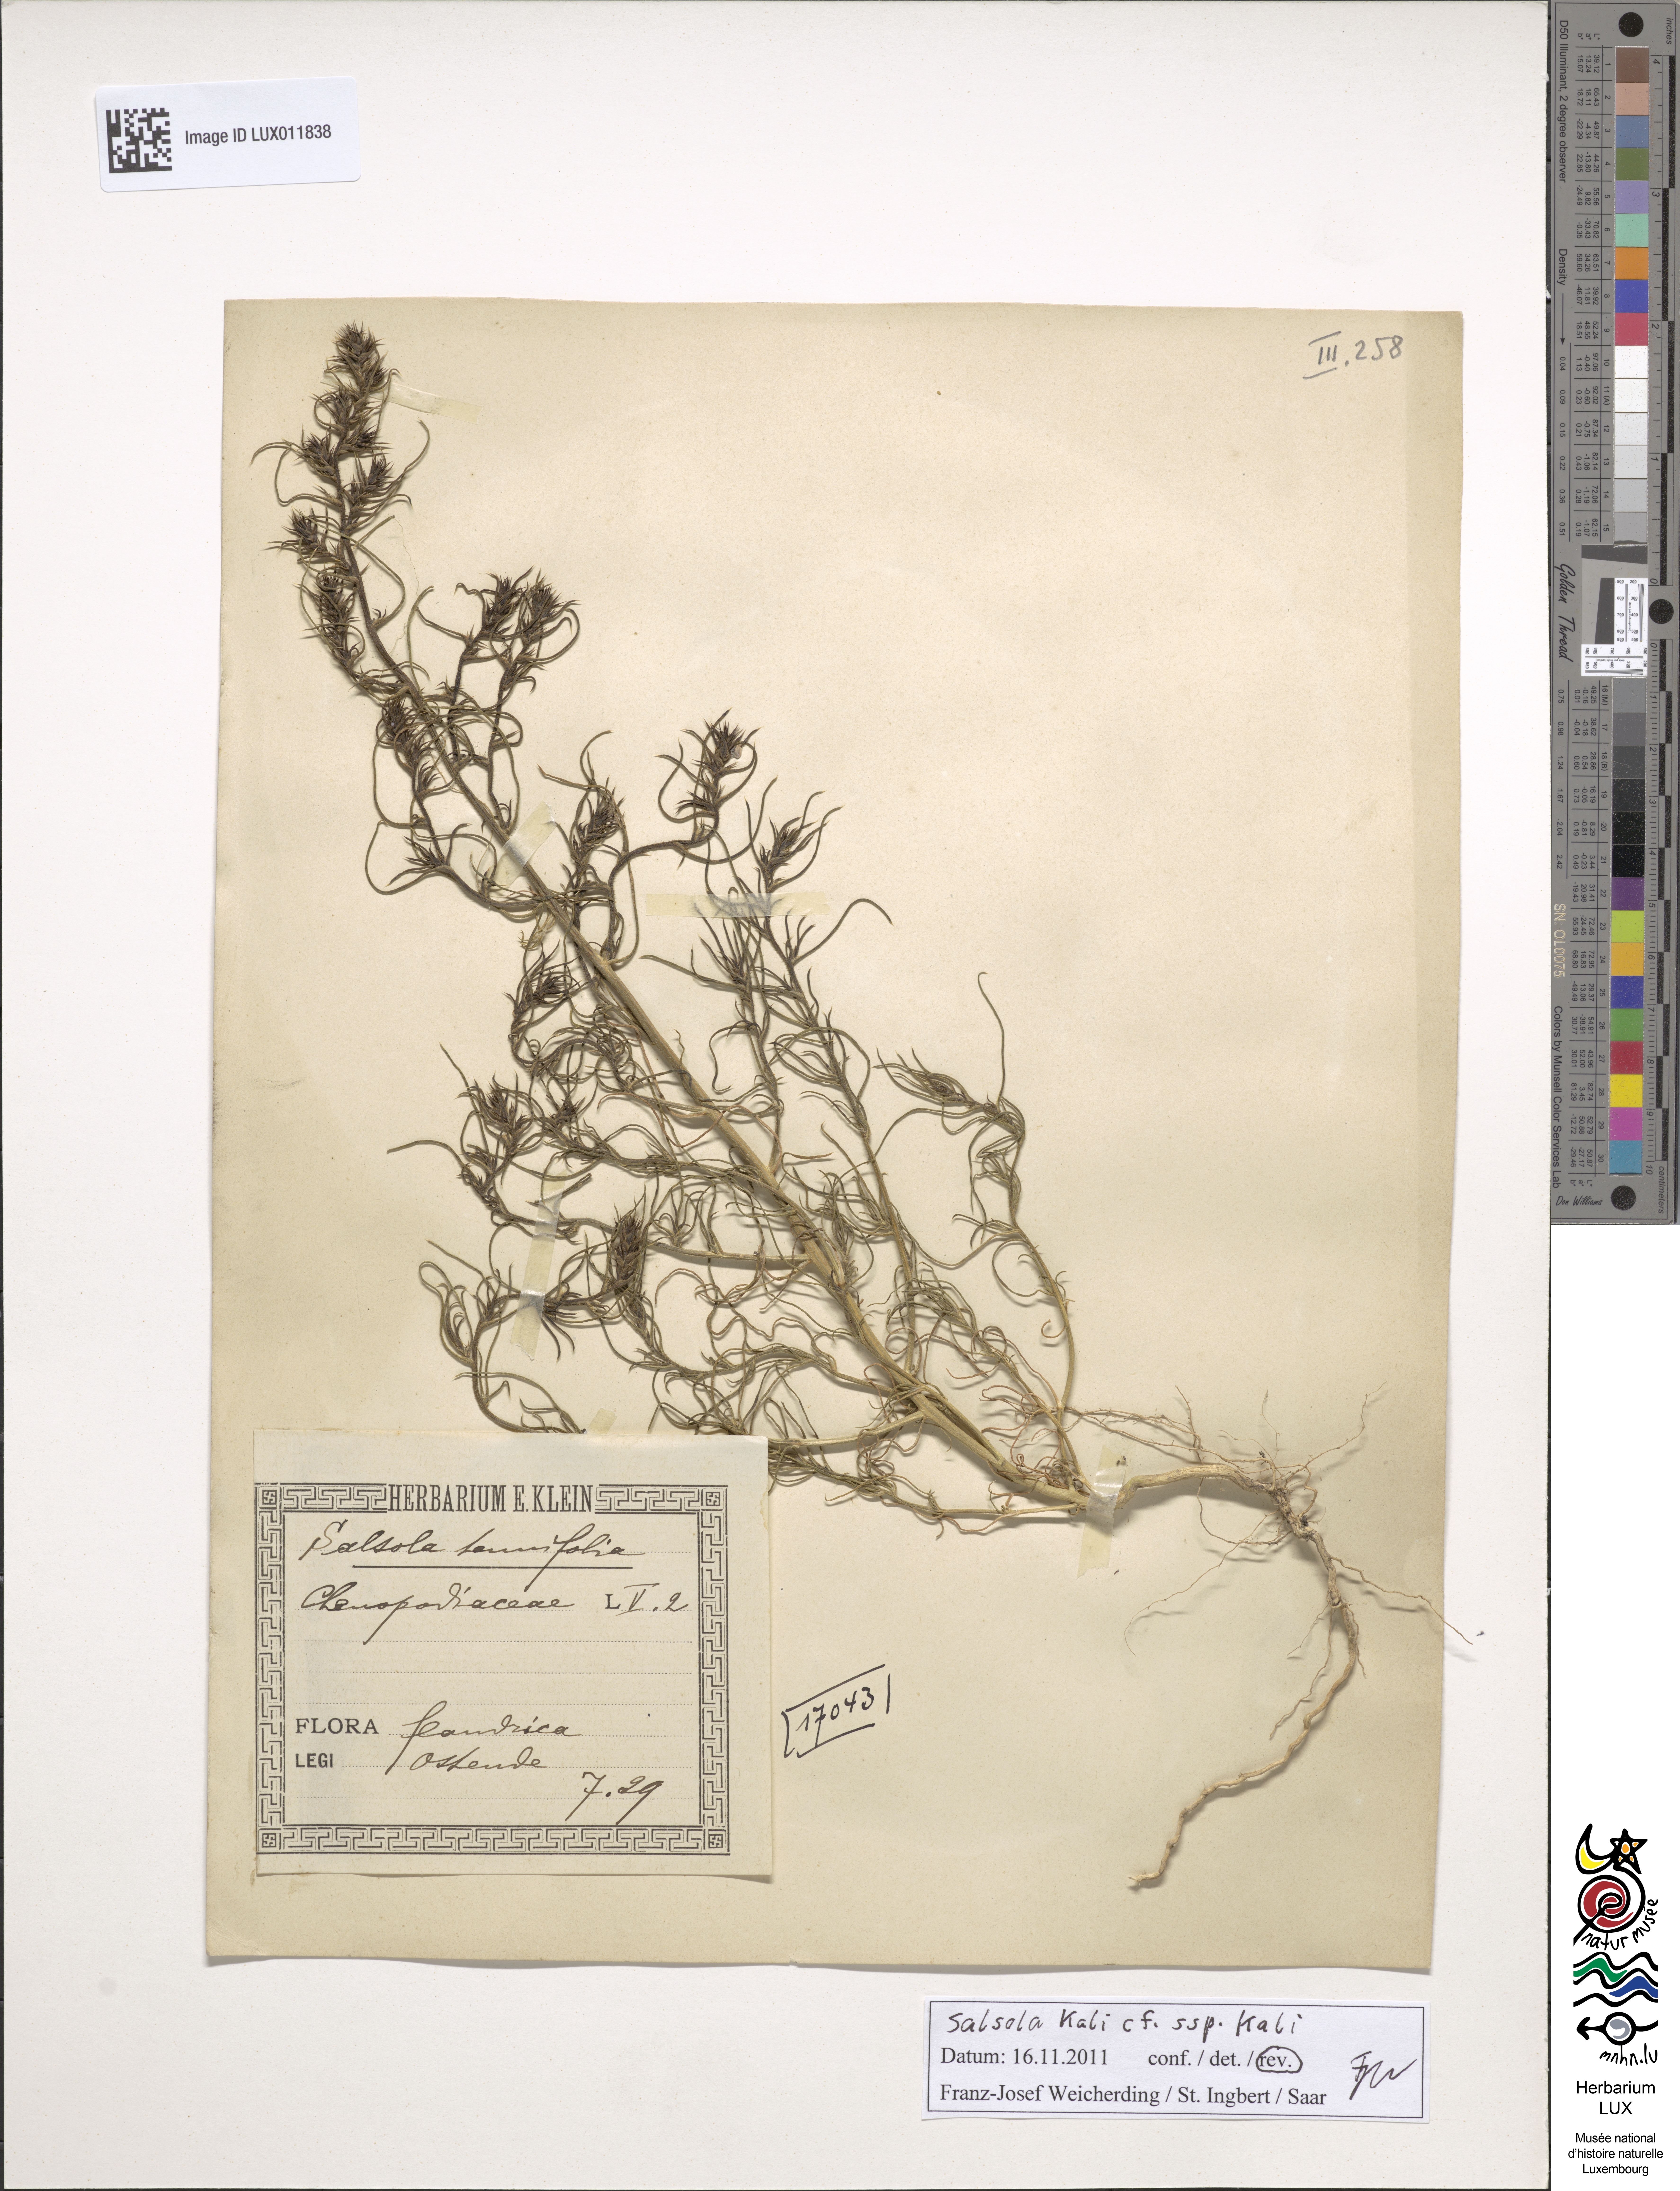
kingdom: Plantae
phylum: Tracheophyta
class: Magnoliopsida
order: Caryophyllales
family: Amaranthaceae
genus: Salsola
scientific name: Salsola tragus
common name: Prickly russian thistle
